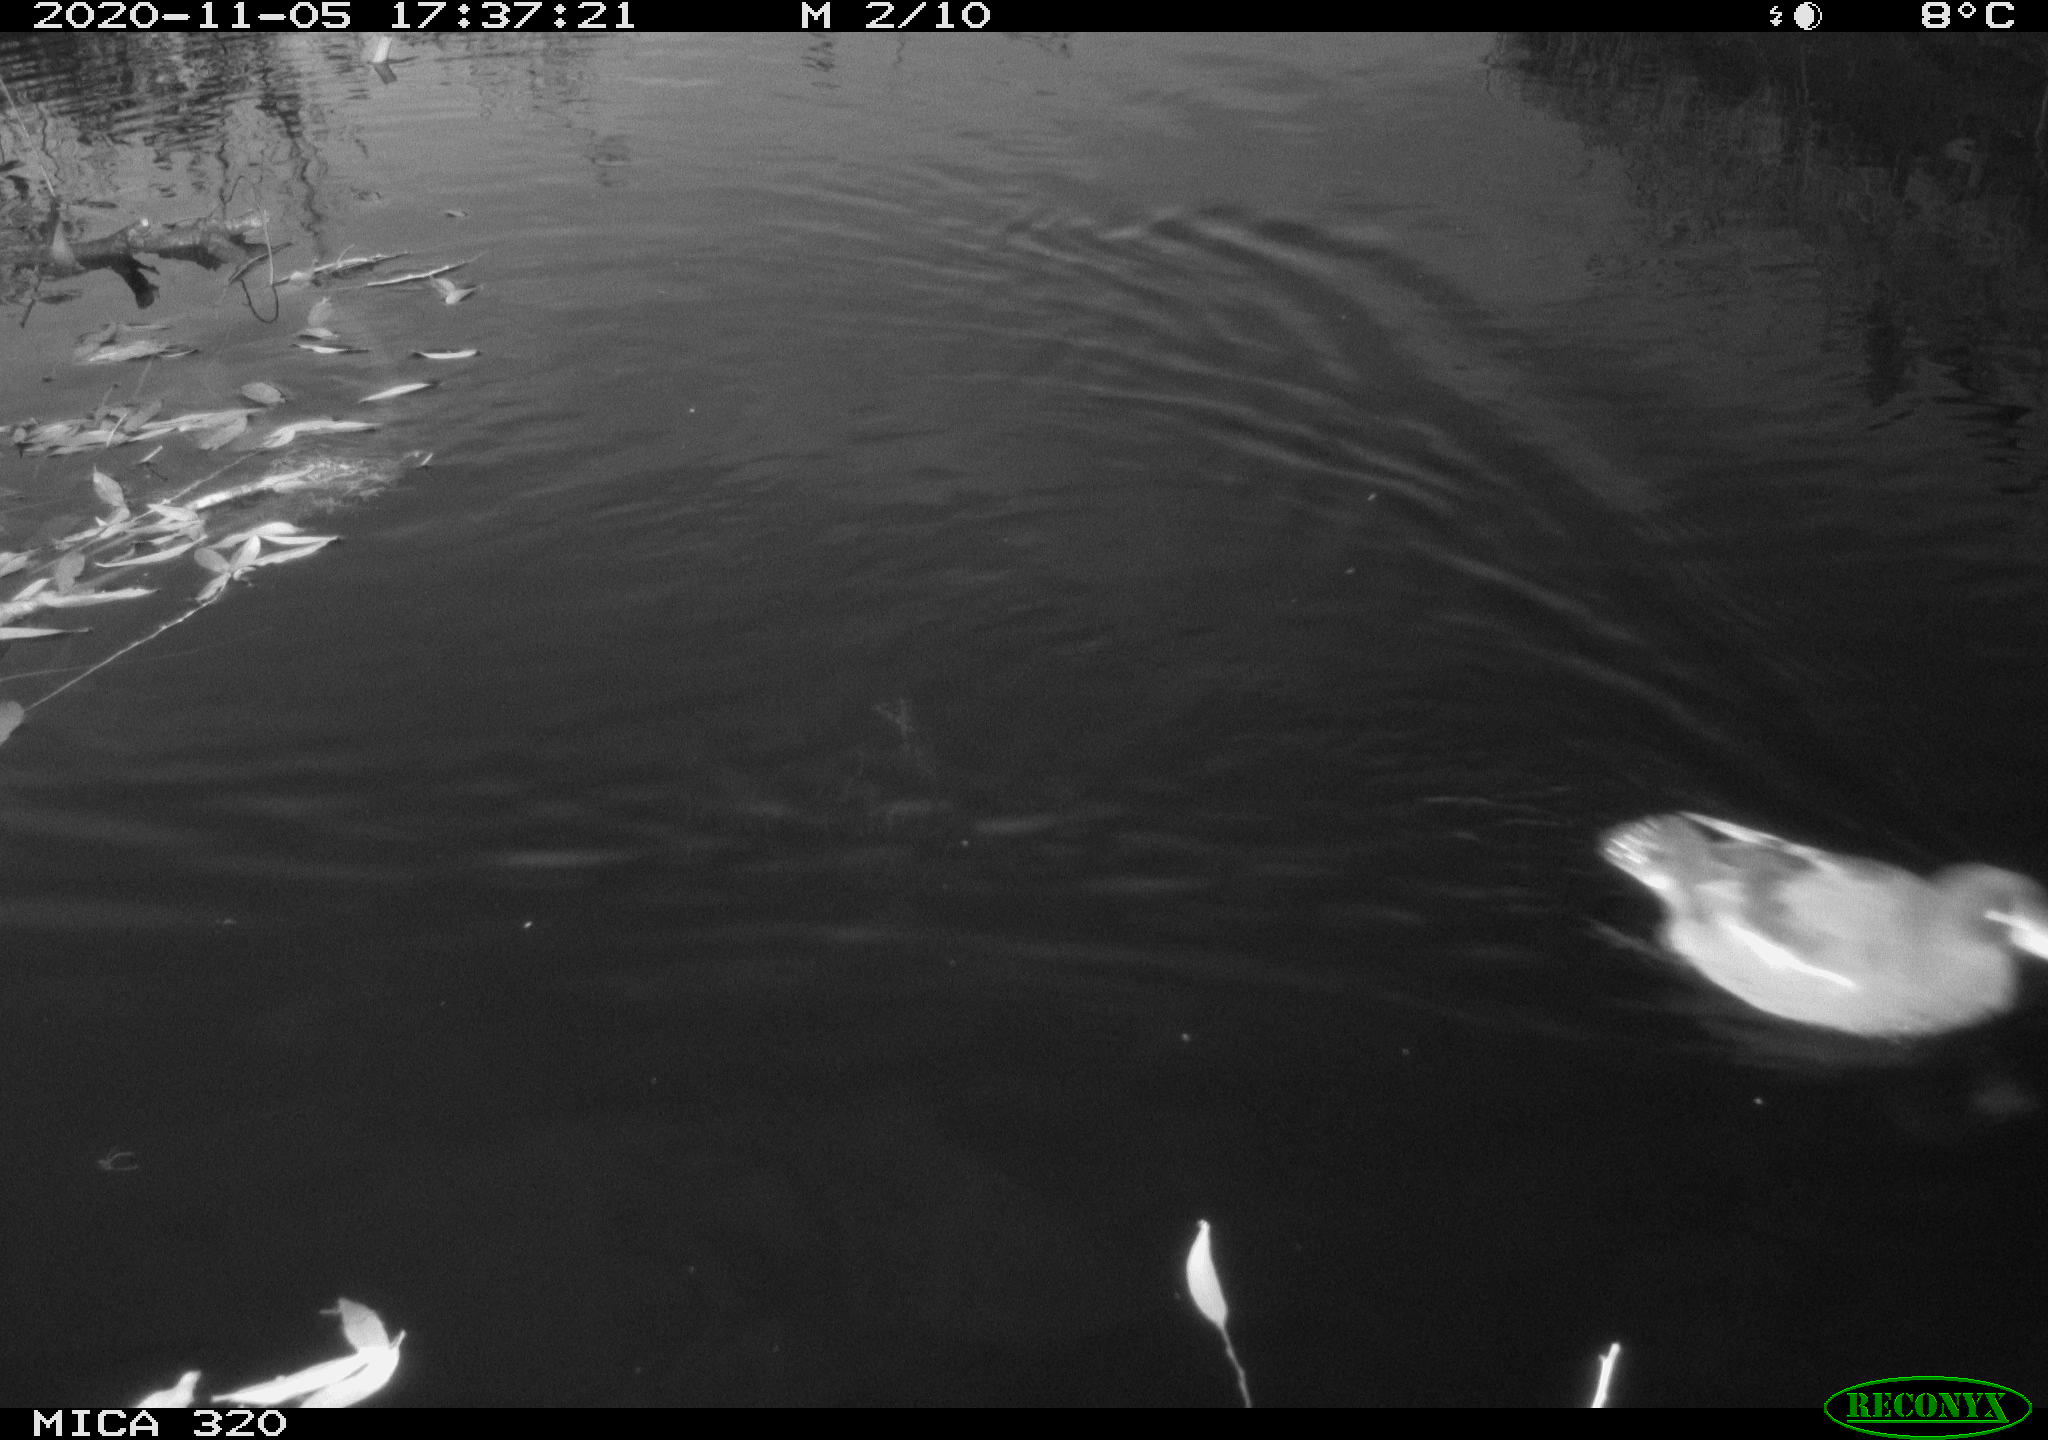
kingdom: Animalia
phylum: Chordata
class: Aves
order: Gruiformes
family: Rallidae
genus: Gallinula
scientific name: Gallinula chloropus
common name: Common moorhen
